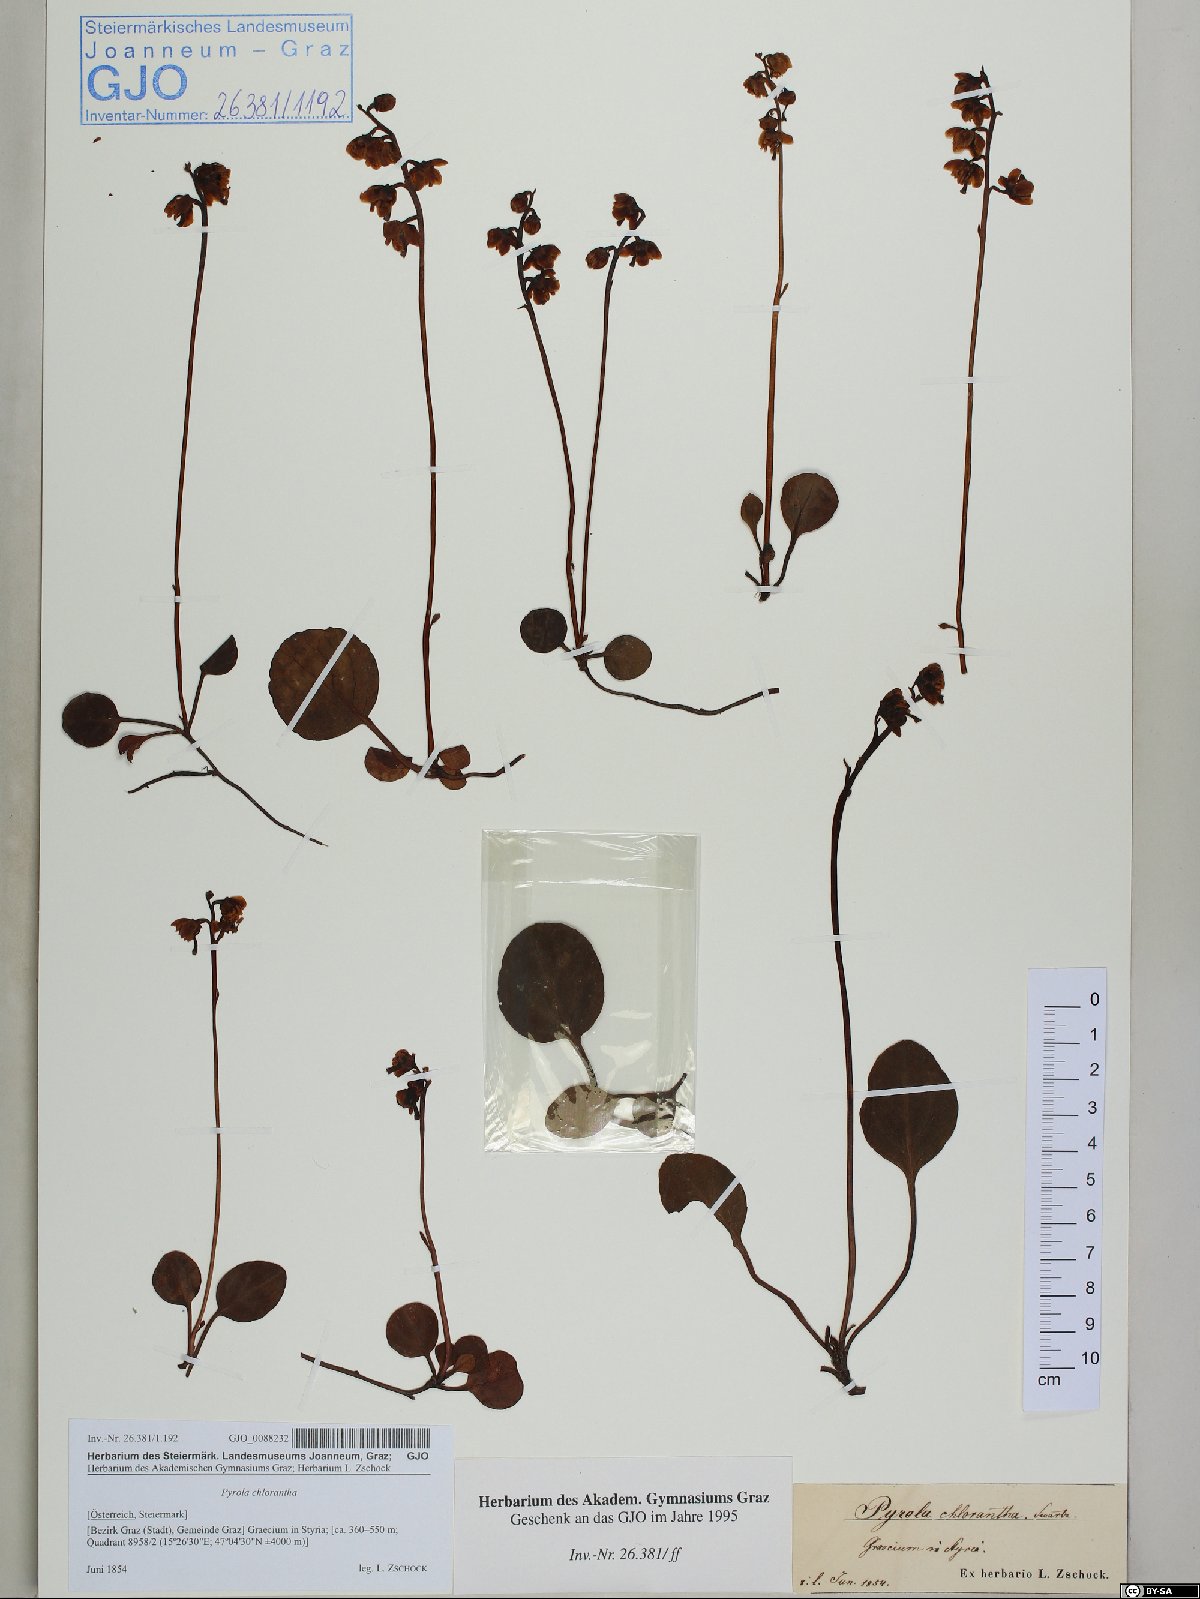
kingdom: Plantae
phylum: Tracheophyta
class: Magnoliopsida
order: Ericales
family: Ericaceae
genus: Pyrola
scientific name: Pyrola chlorantha
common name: Green wintergreen
